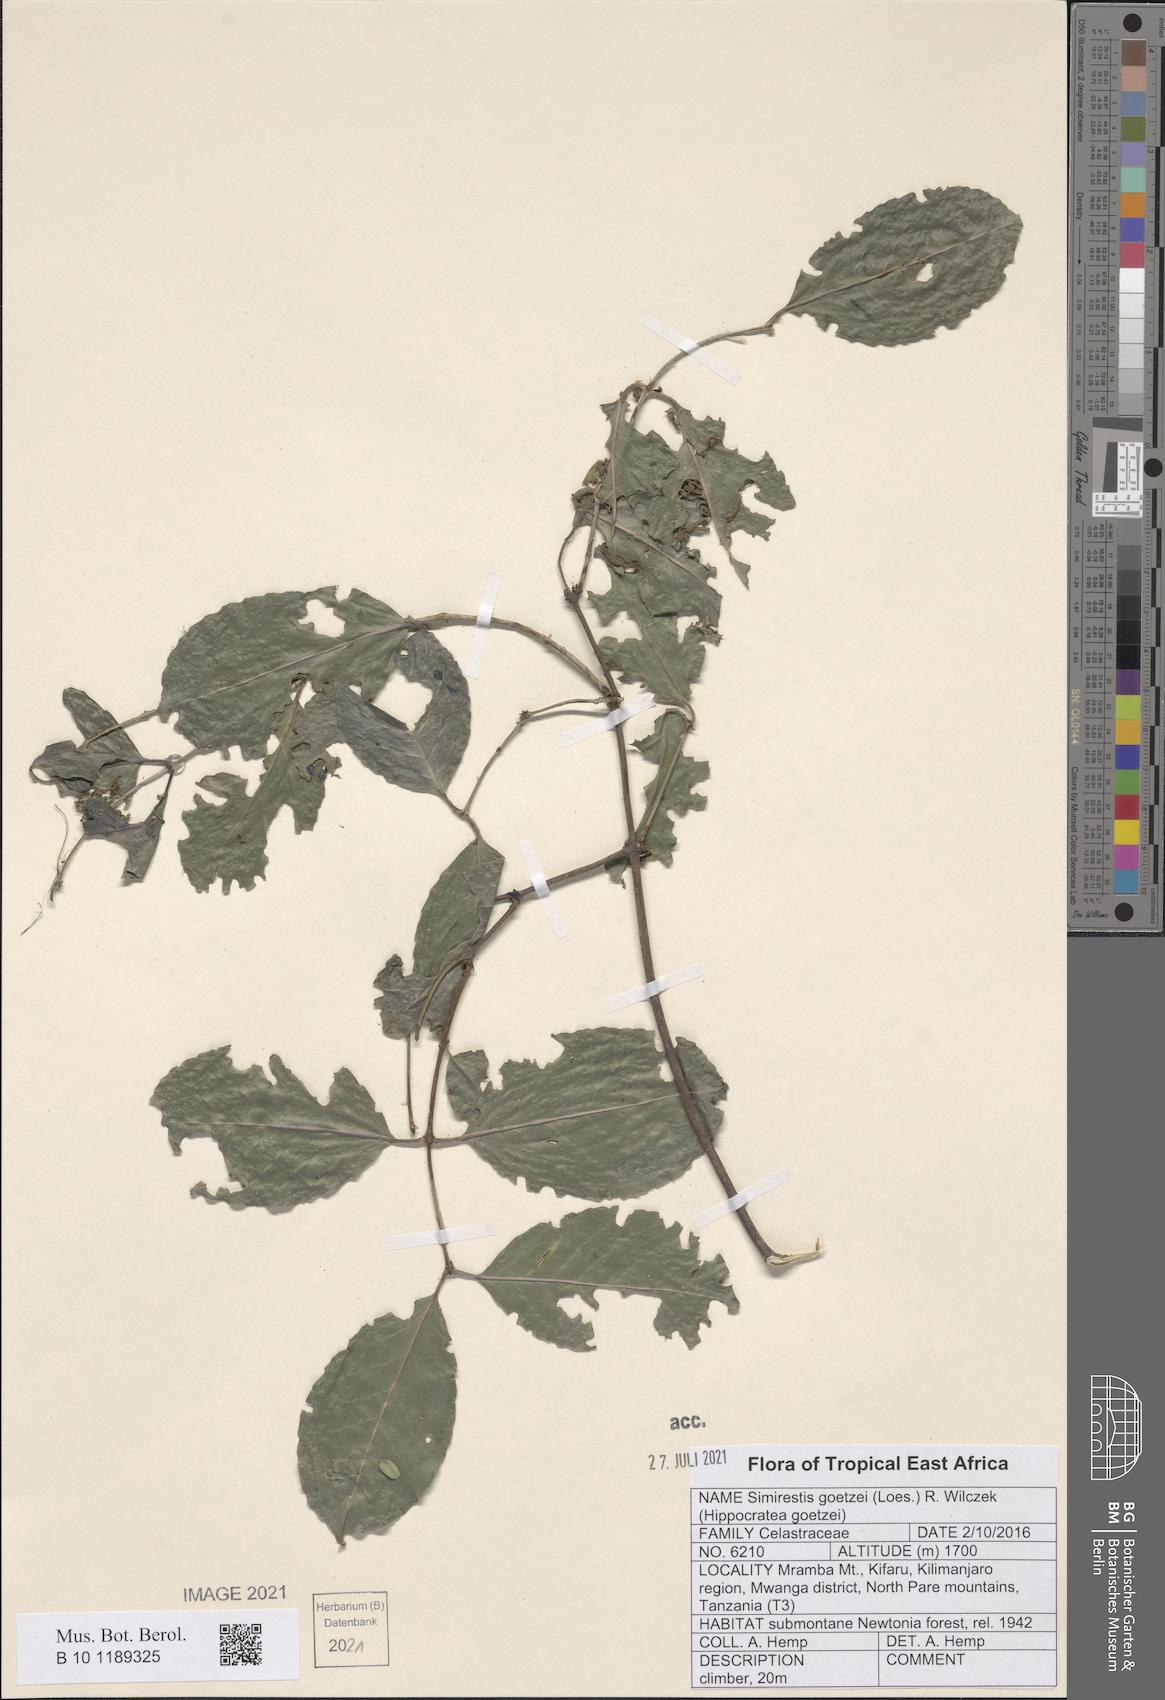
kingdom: Plantae
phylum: Tracheophyta
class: Magnoliopsida
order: Celastrales
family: Celastraceae
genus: Pristimera
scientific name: Pristimera goetzei
